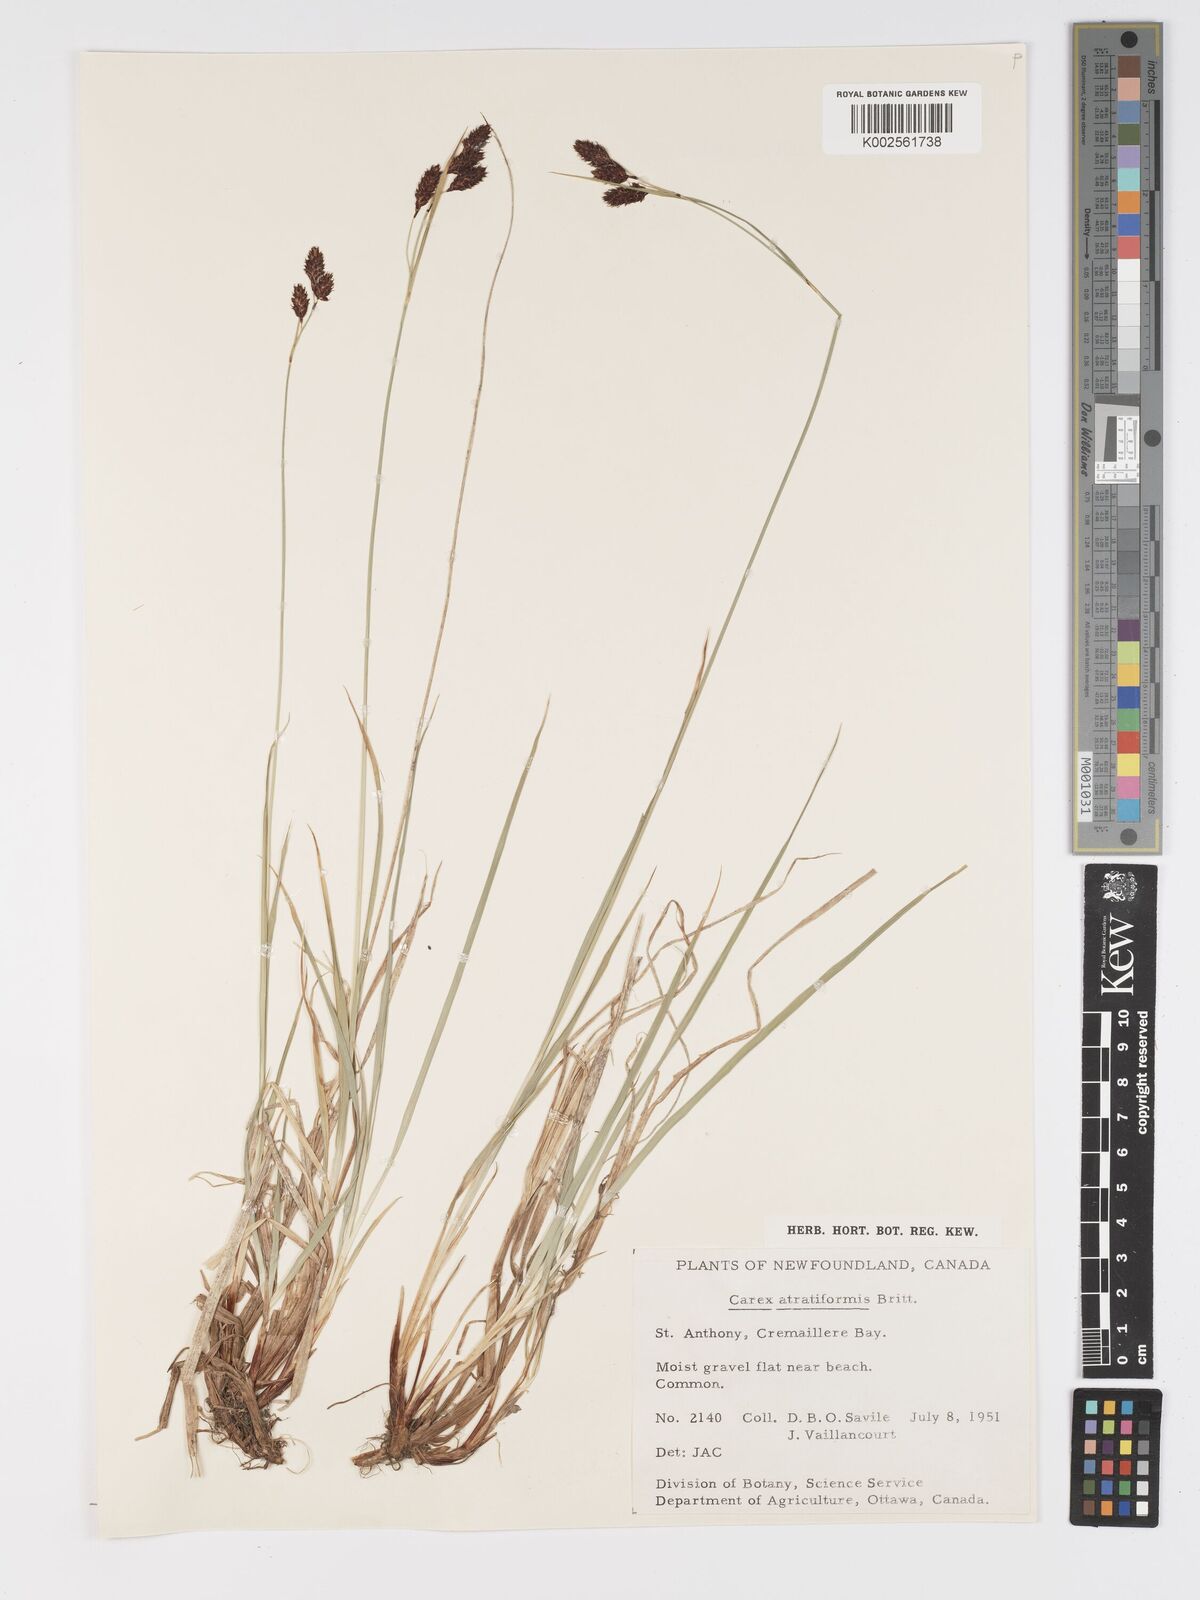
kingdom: Plantae
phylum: Tracheophyta
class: Liliopsida
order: Poales
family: Cyperaceae
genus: Carex
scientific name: Carex atratiformis
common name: Black sedge
